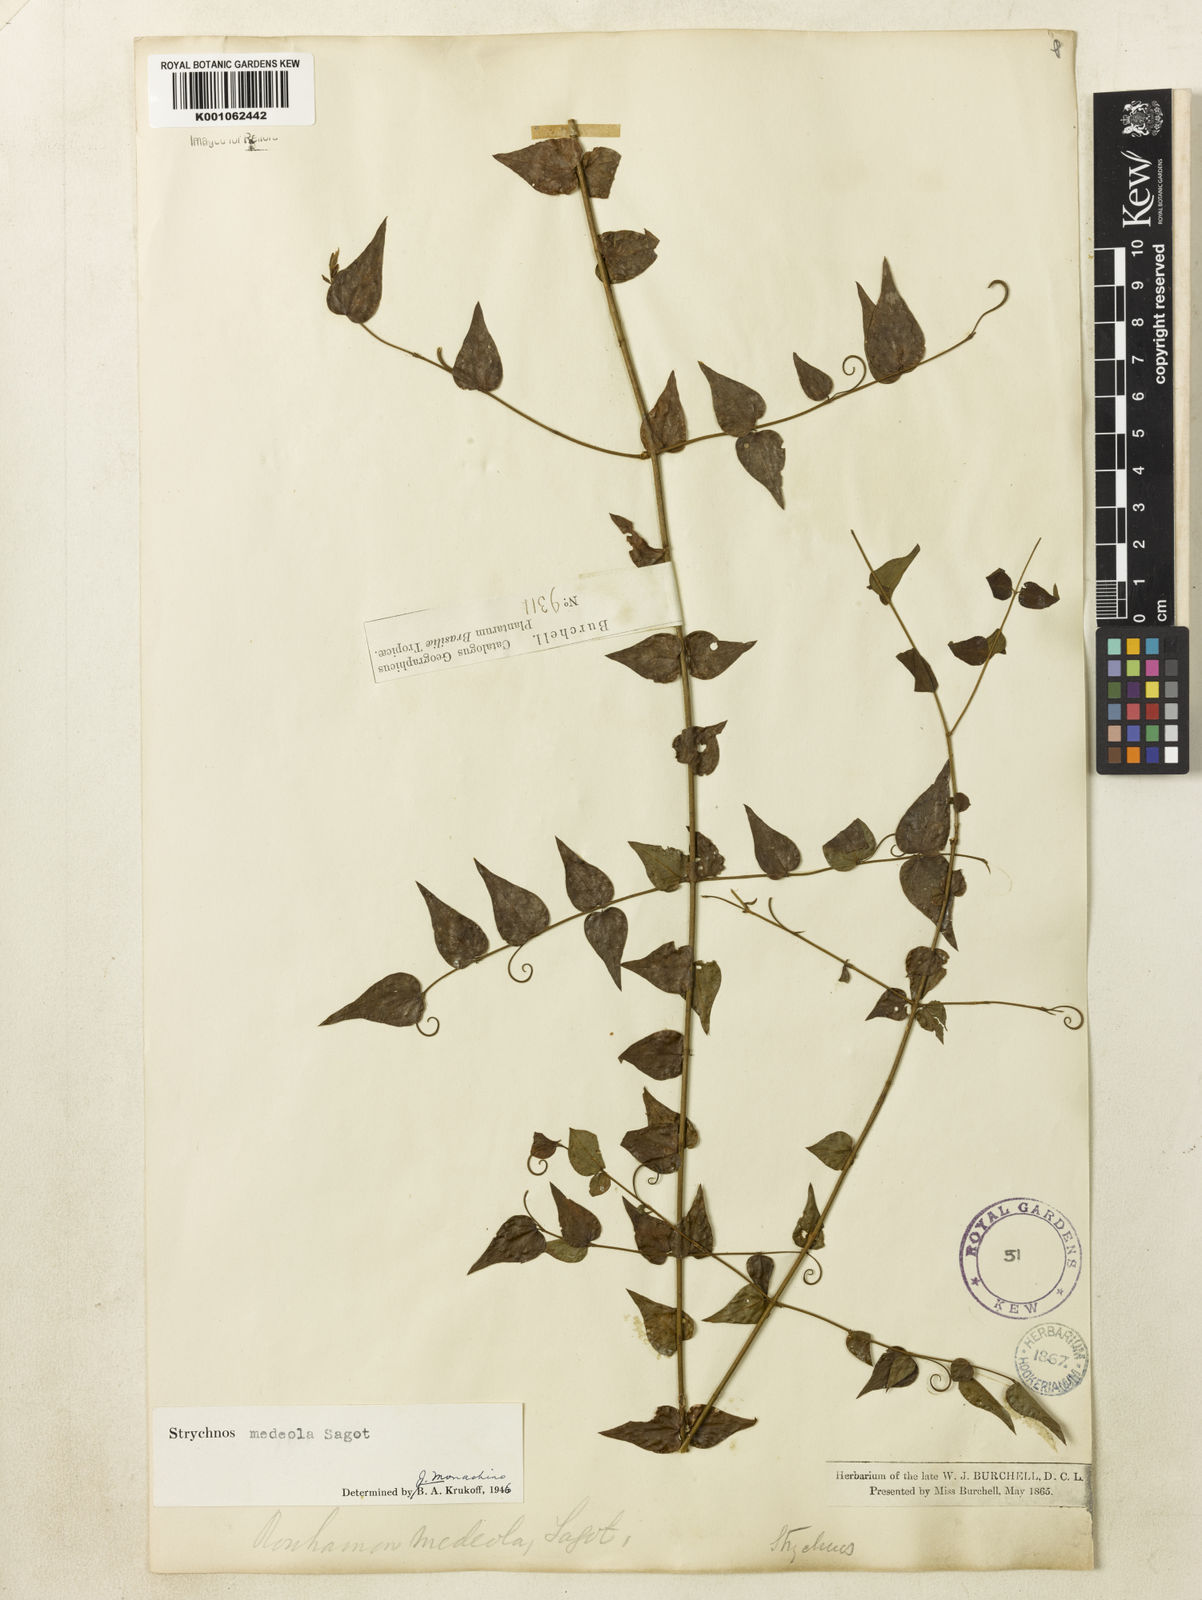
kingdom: Plantae
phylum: Tracheophyta
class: Magnoliopsida
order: Gentianales
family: Loganiaceae
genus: Strychnos
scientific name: Strychnos medeola
